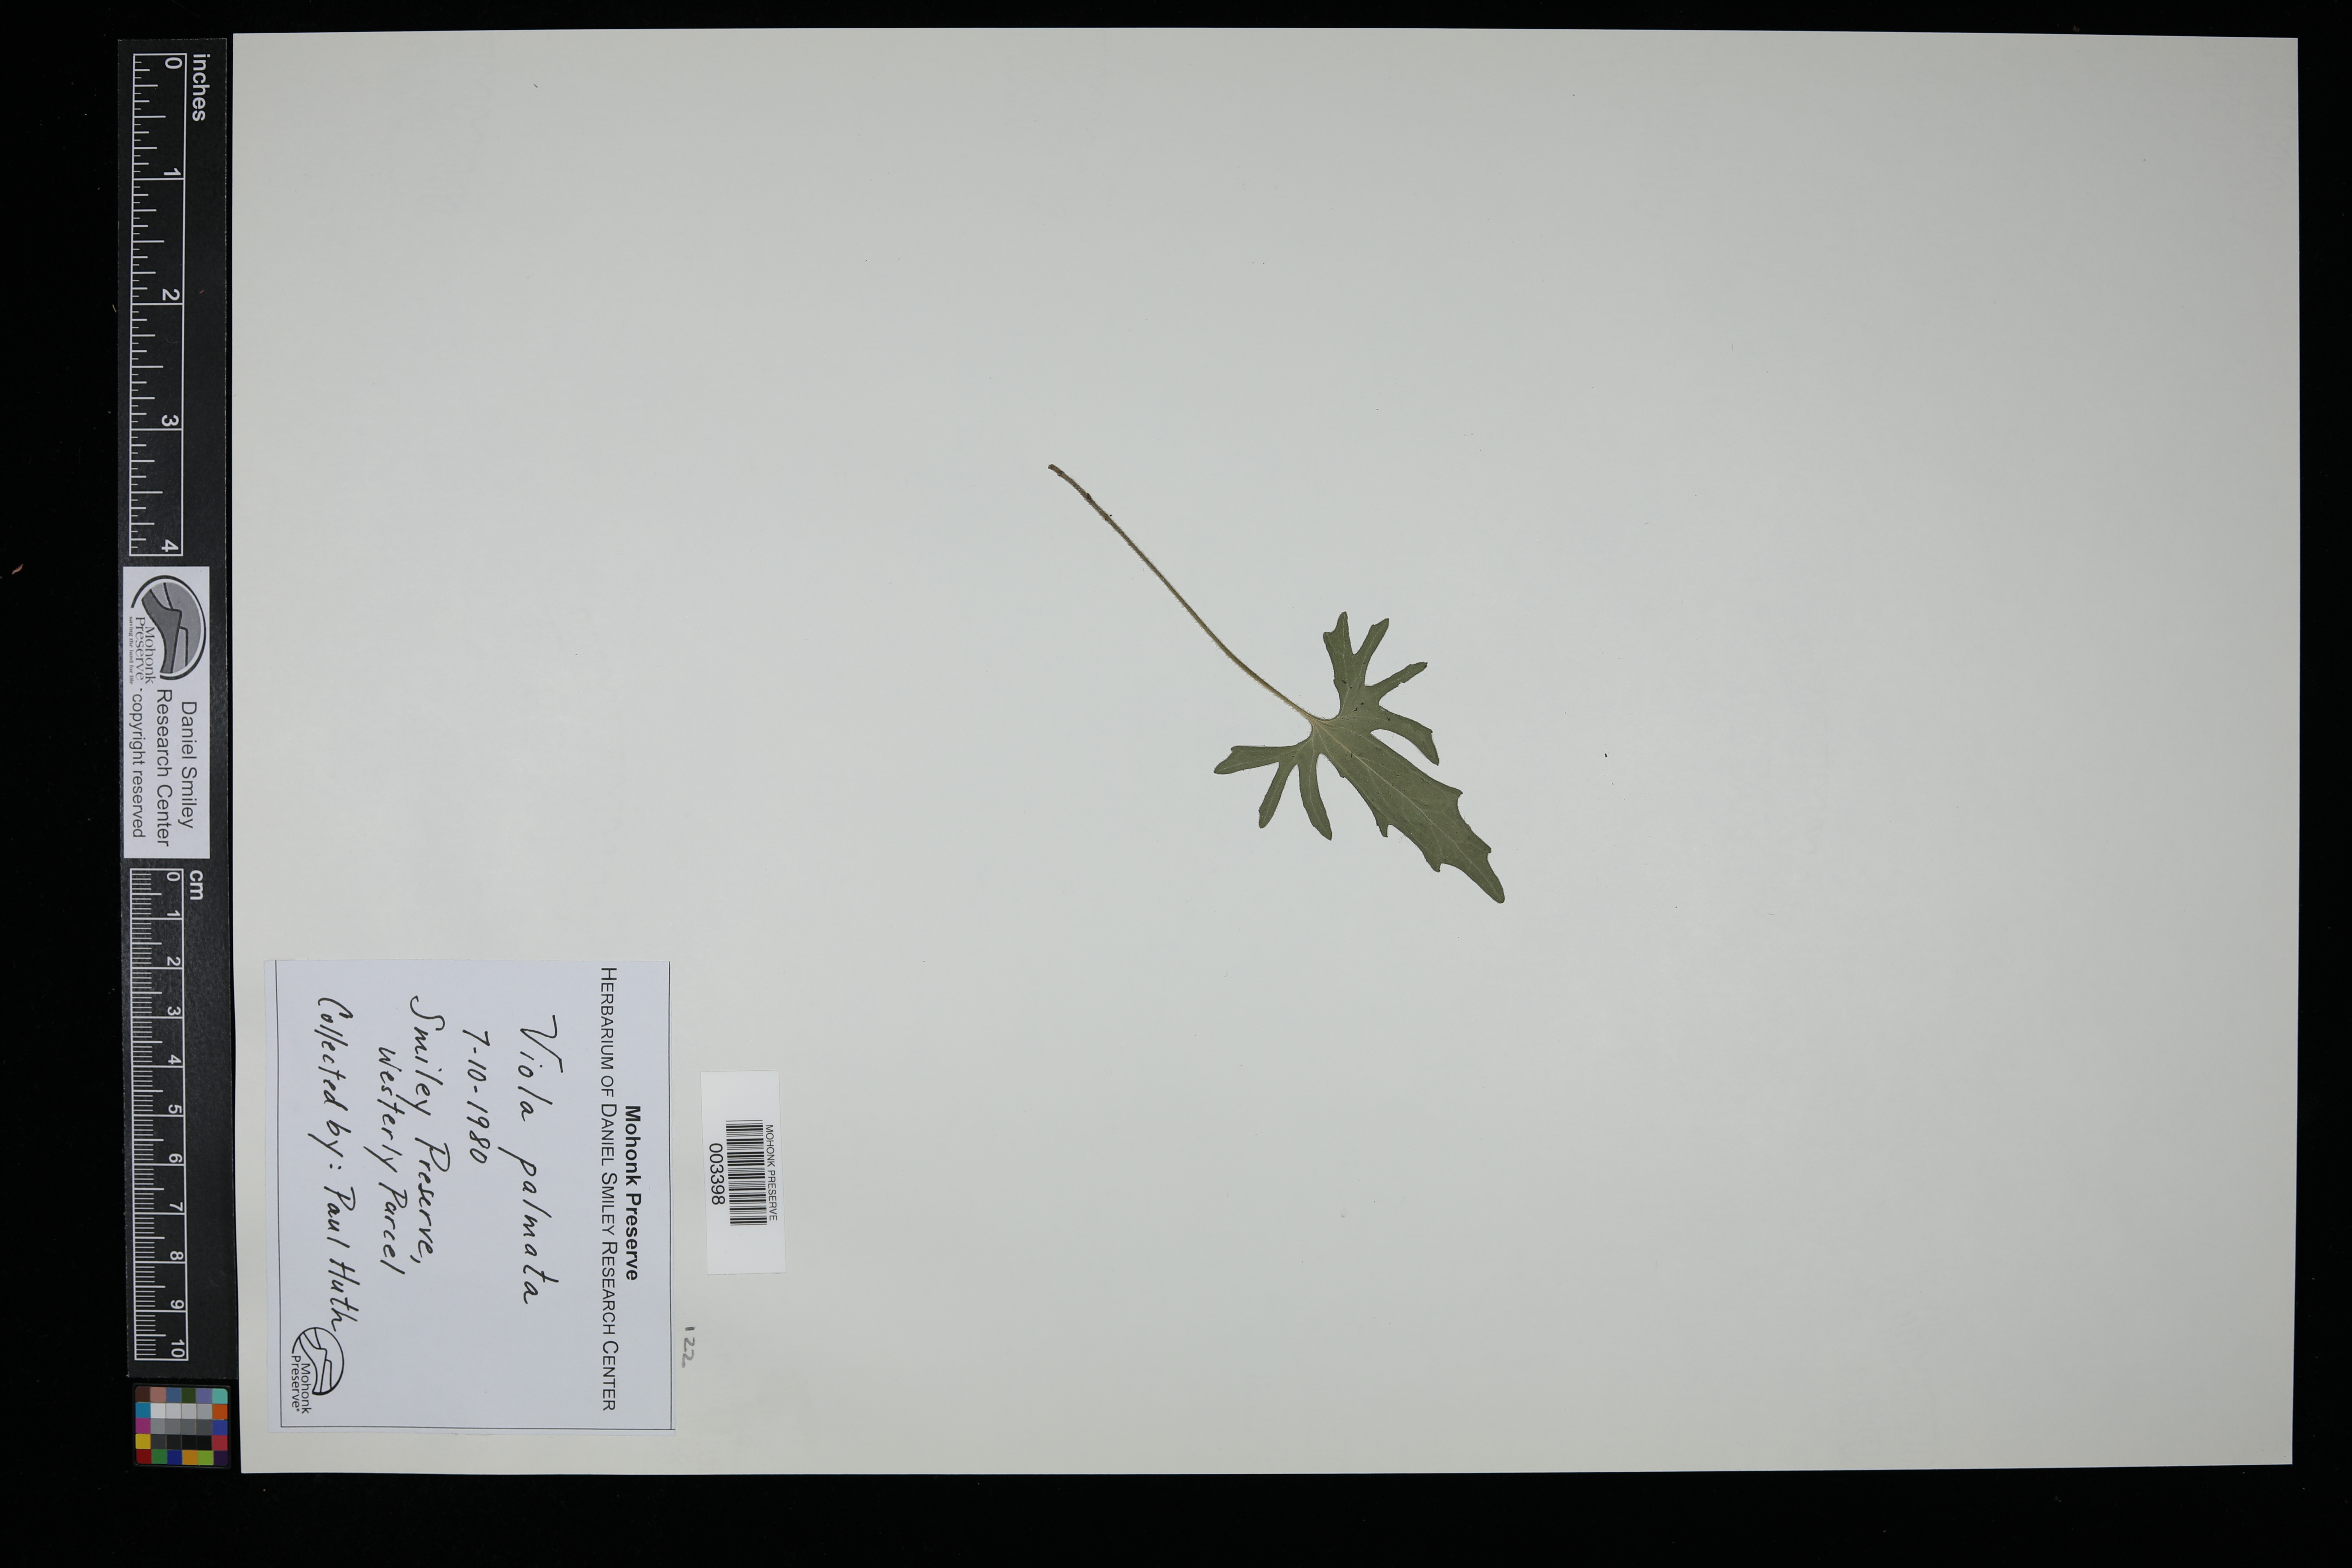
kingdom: Plantae
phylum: Tracheophyta
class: Magnoliopsida
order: Malpighiales
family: Violaceae
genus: Viola
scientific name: Viola palmata
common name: Early blue violet
